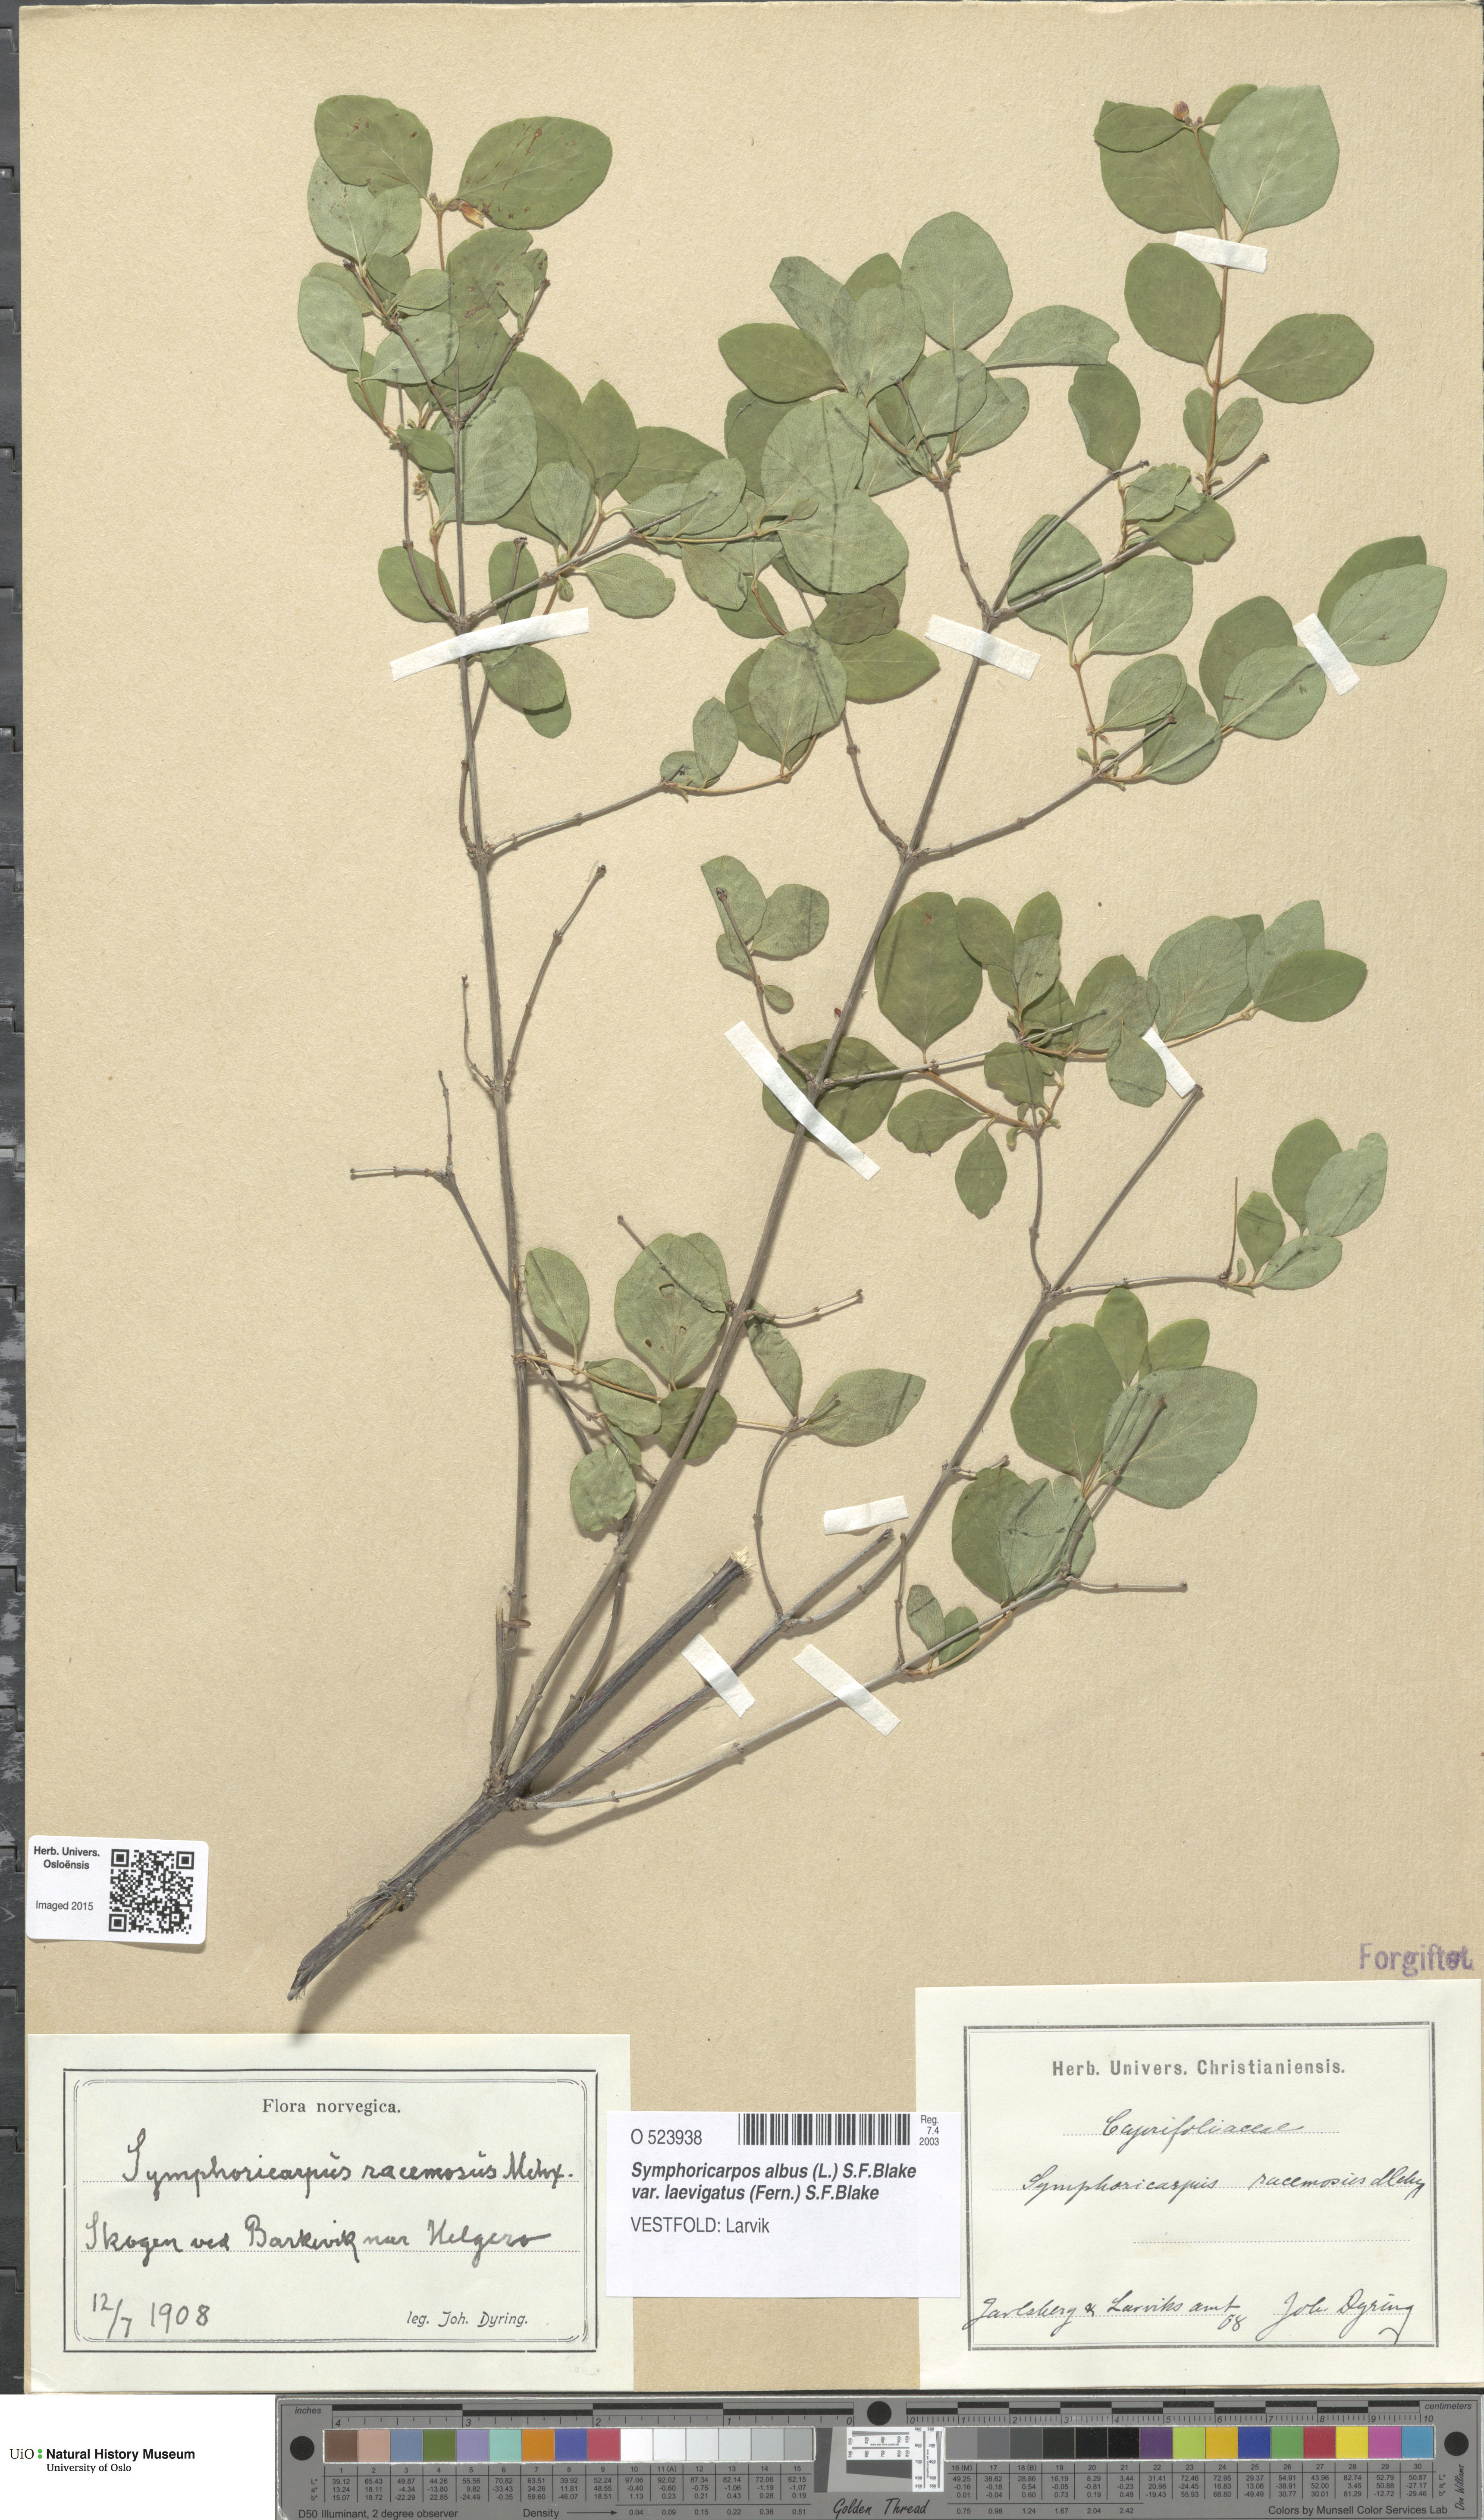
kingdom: Plantae
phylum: Tracheophyta
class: Magnoliopsida
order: Dipsacales
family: Caprifoliaceae
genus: Symphoricarpos
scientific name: Symphoricarpos albus
